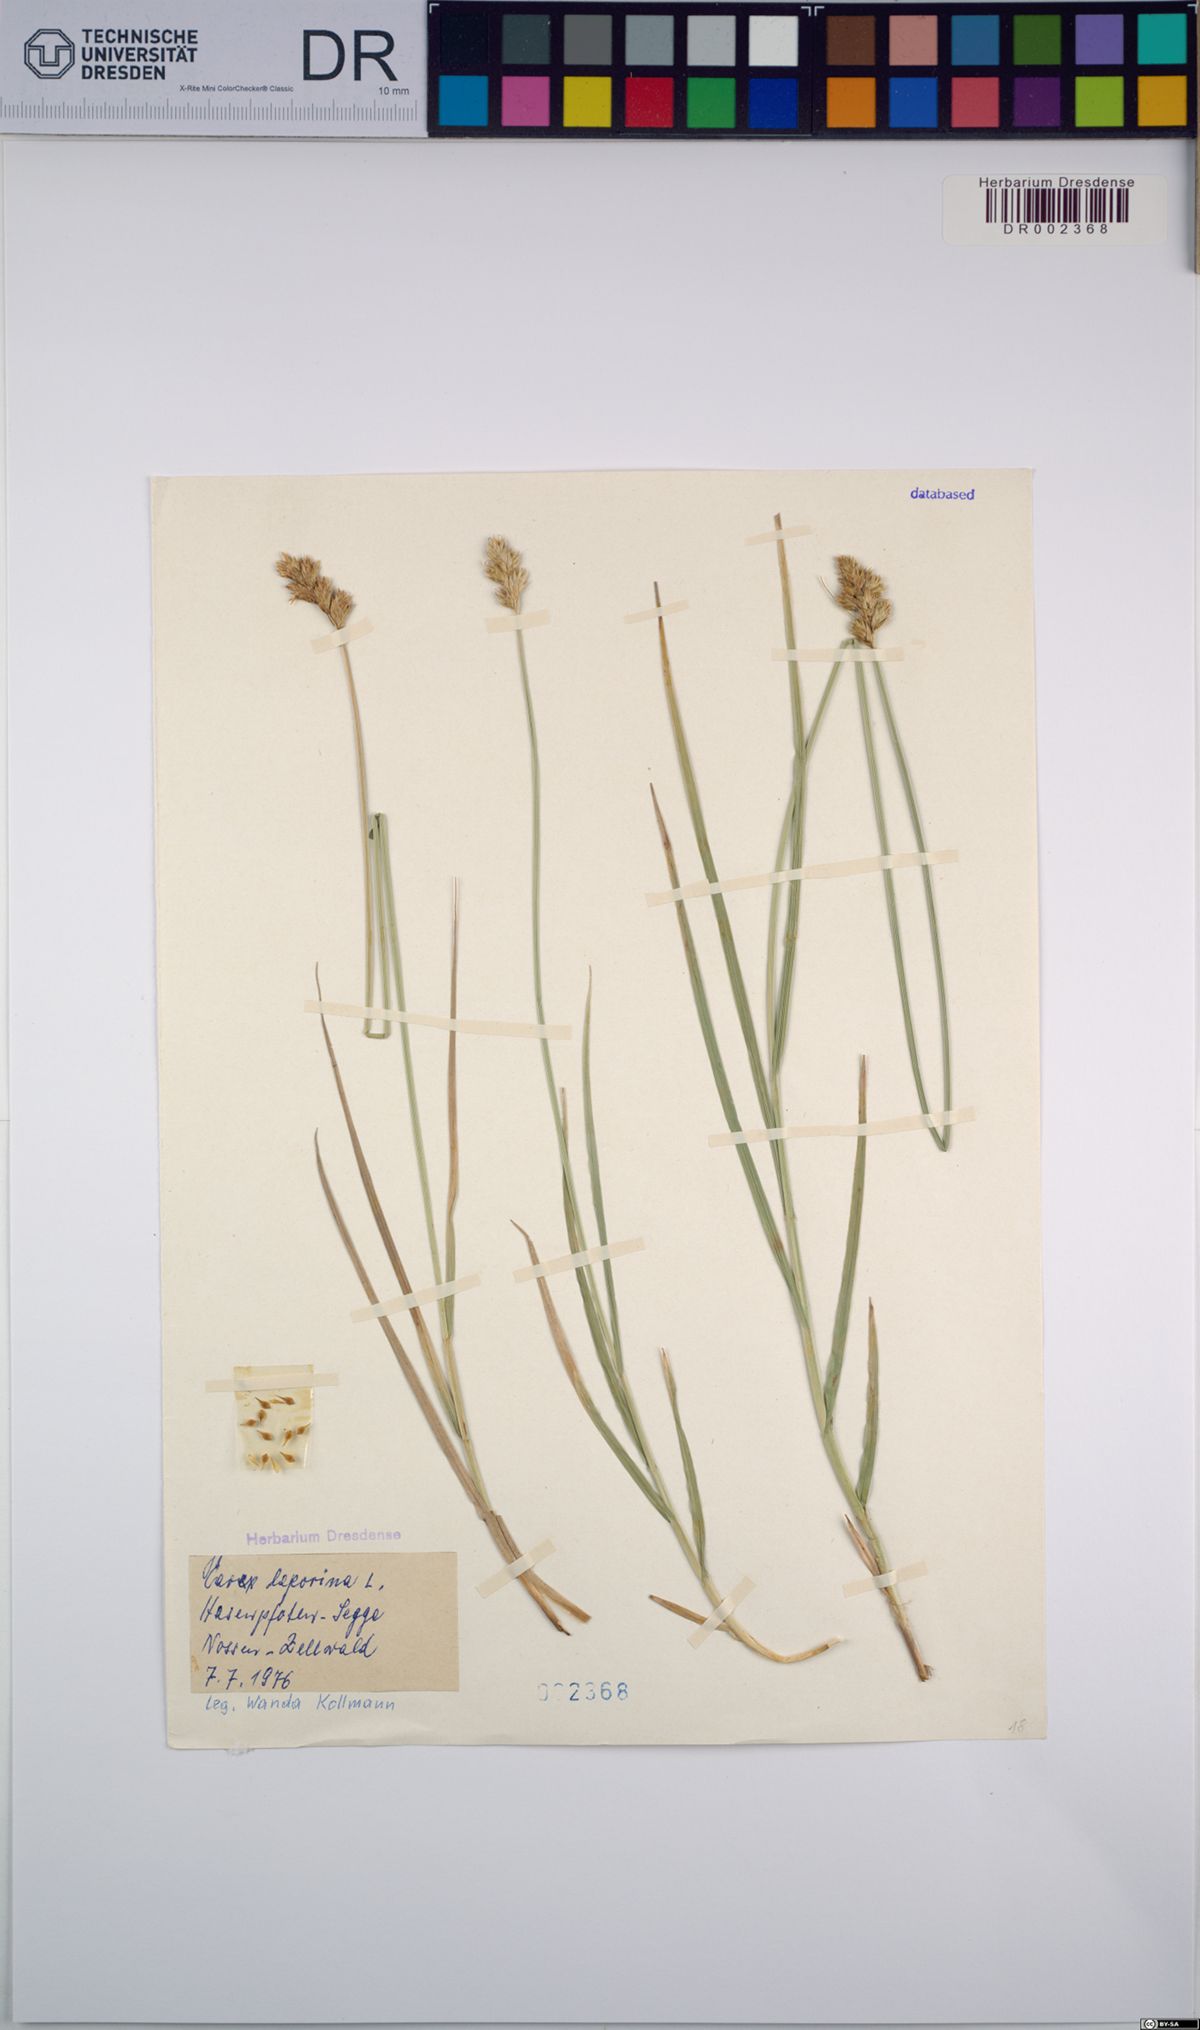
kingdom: Plantae
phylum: Tracheophyta
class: Liliopsida
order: Poales
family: Cyperaceae
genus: Carex
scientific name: Carex leporina
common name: Oval sedge
